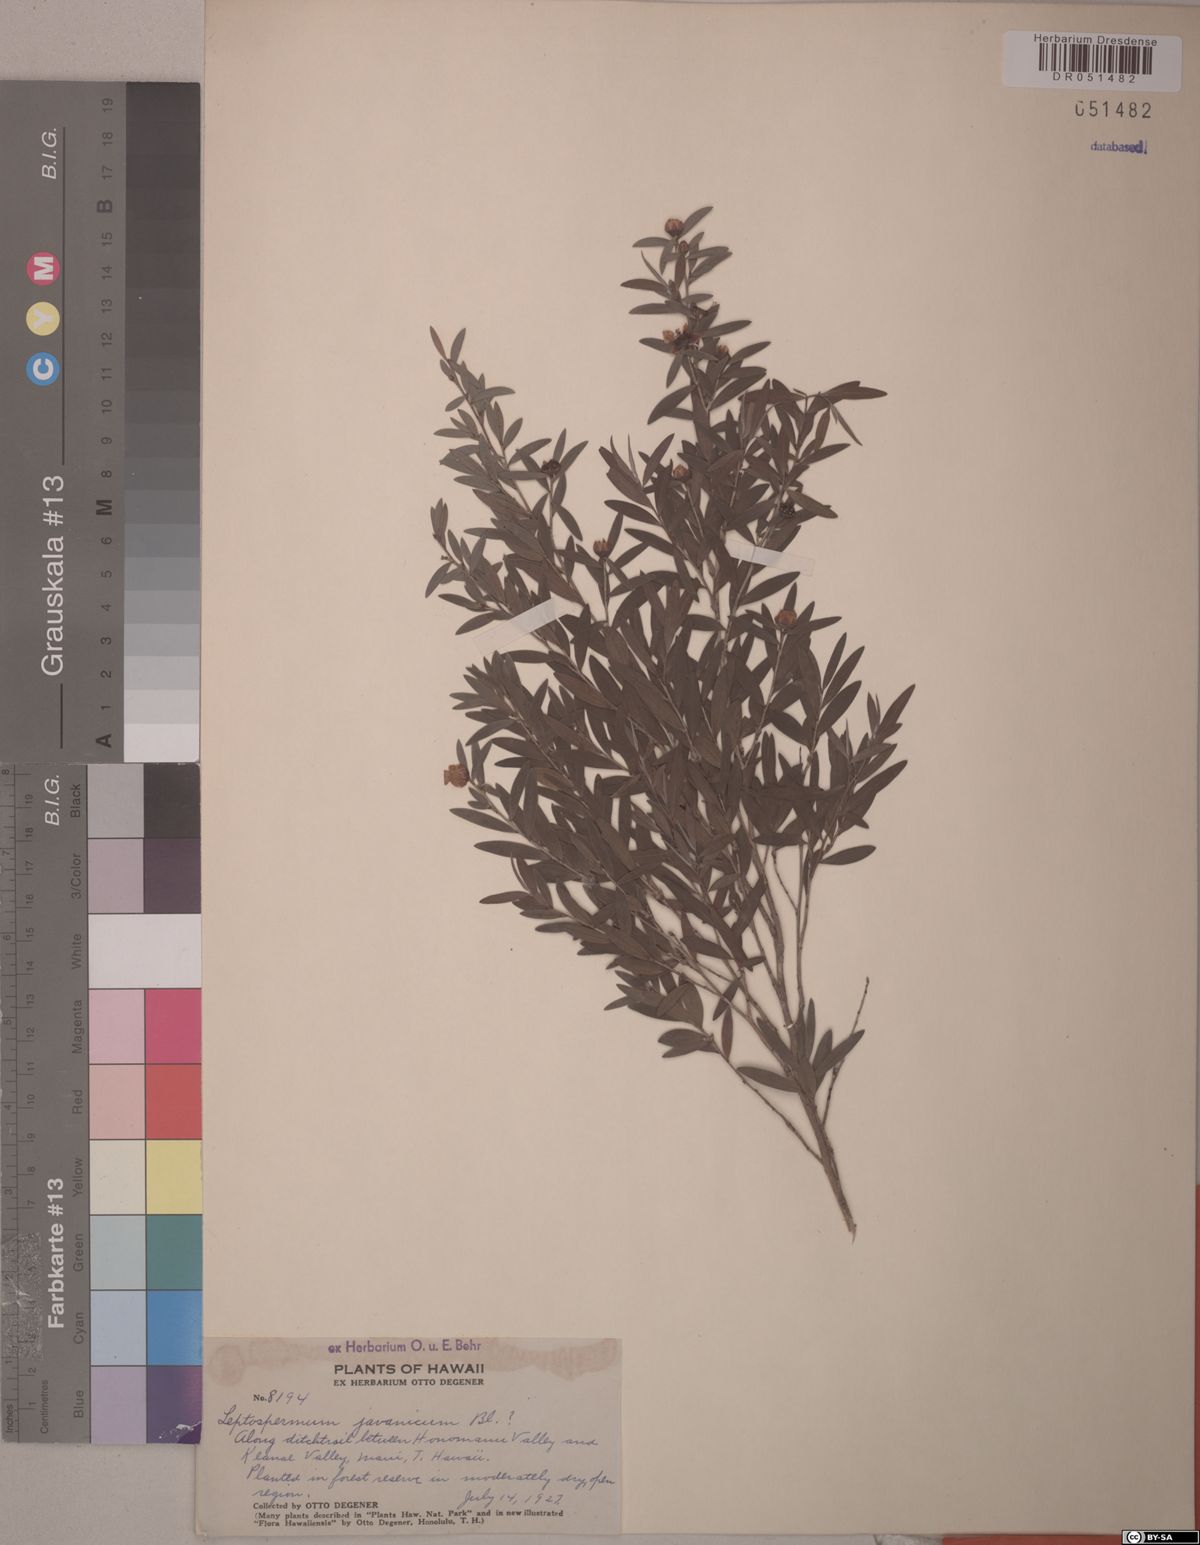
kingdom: Plantae
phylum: Tracheophyta
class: Magnoliopsida
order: Myrtales
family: Myrtaceae
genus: Leptospermum
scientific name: Leptospermum javanicum
